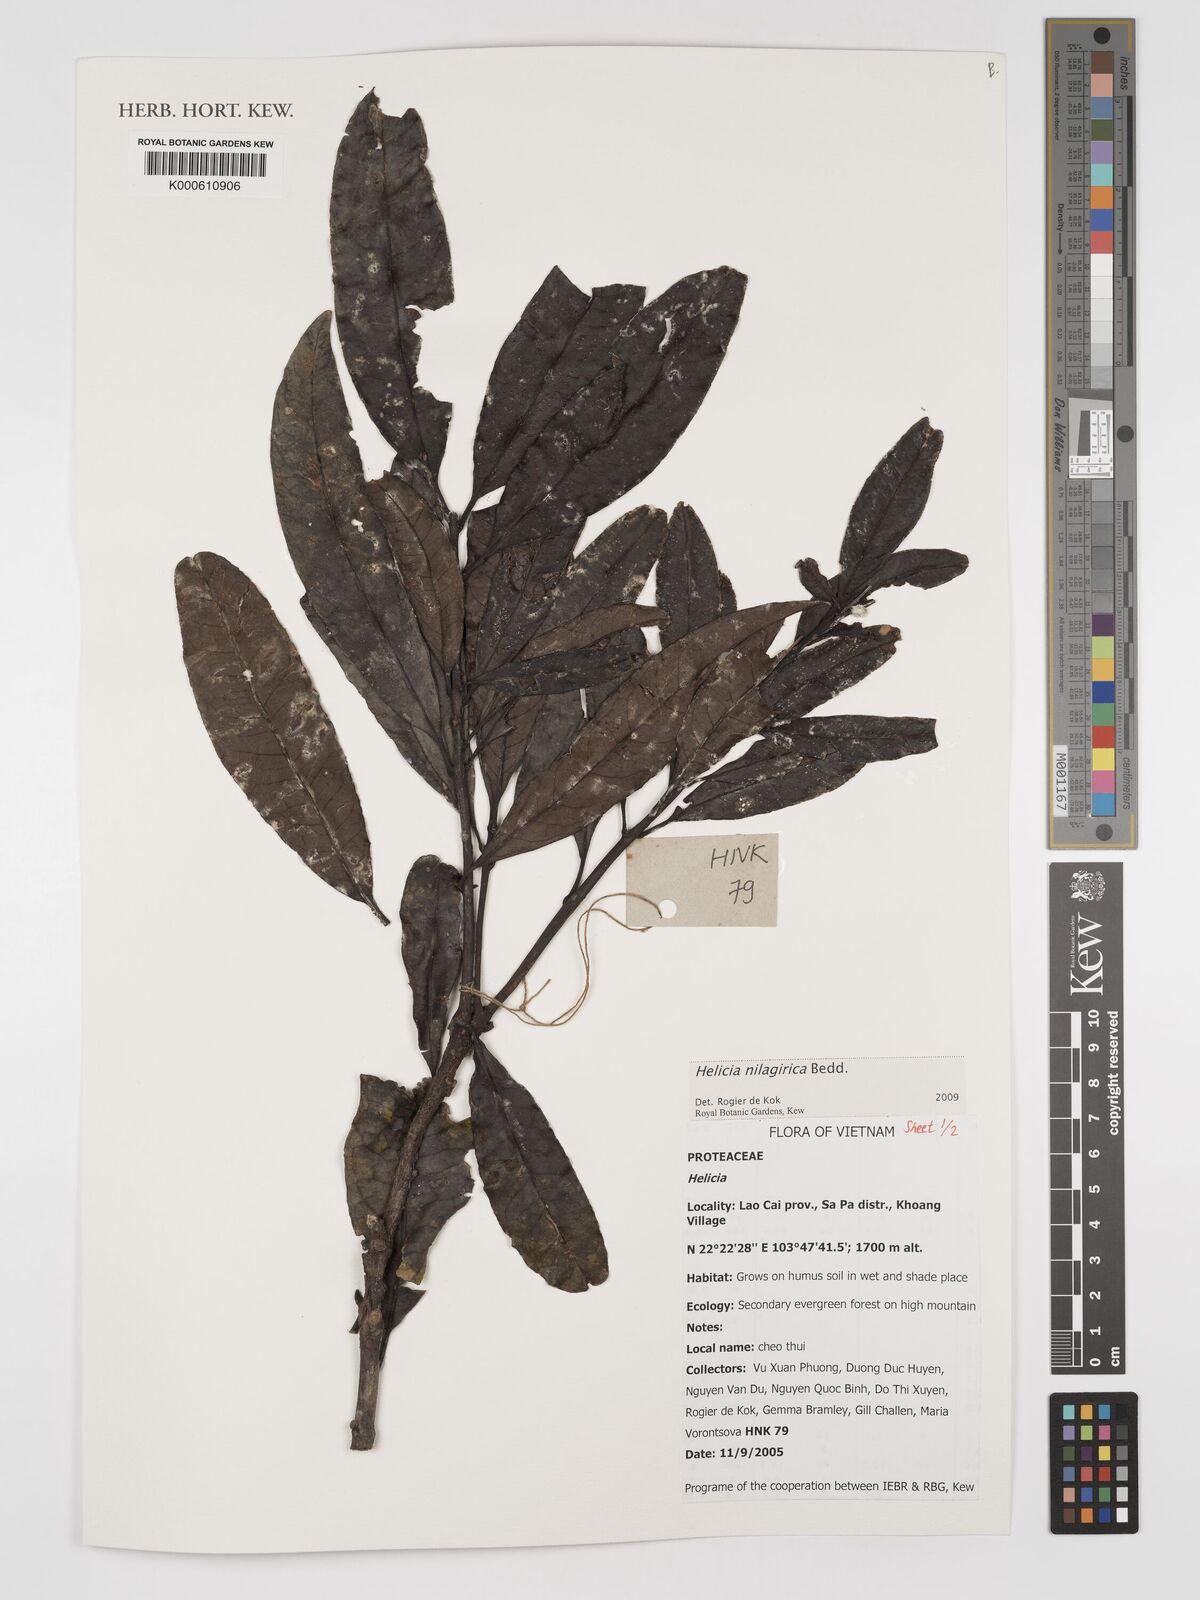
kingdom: Plantae
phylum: Tracheophyta
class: Magnoliopsida
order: Proteales
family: Proteaceae
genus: Helicia
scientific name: Helicia nilagirica
